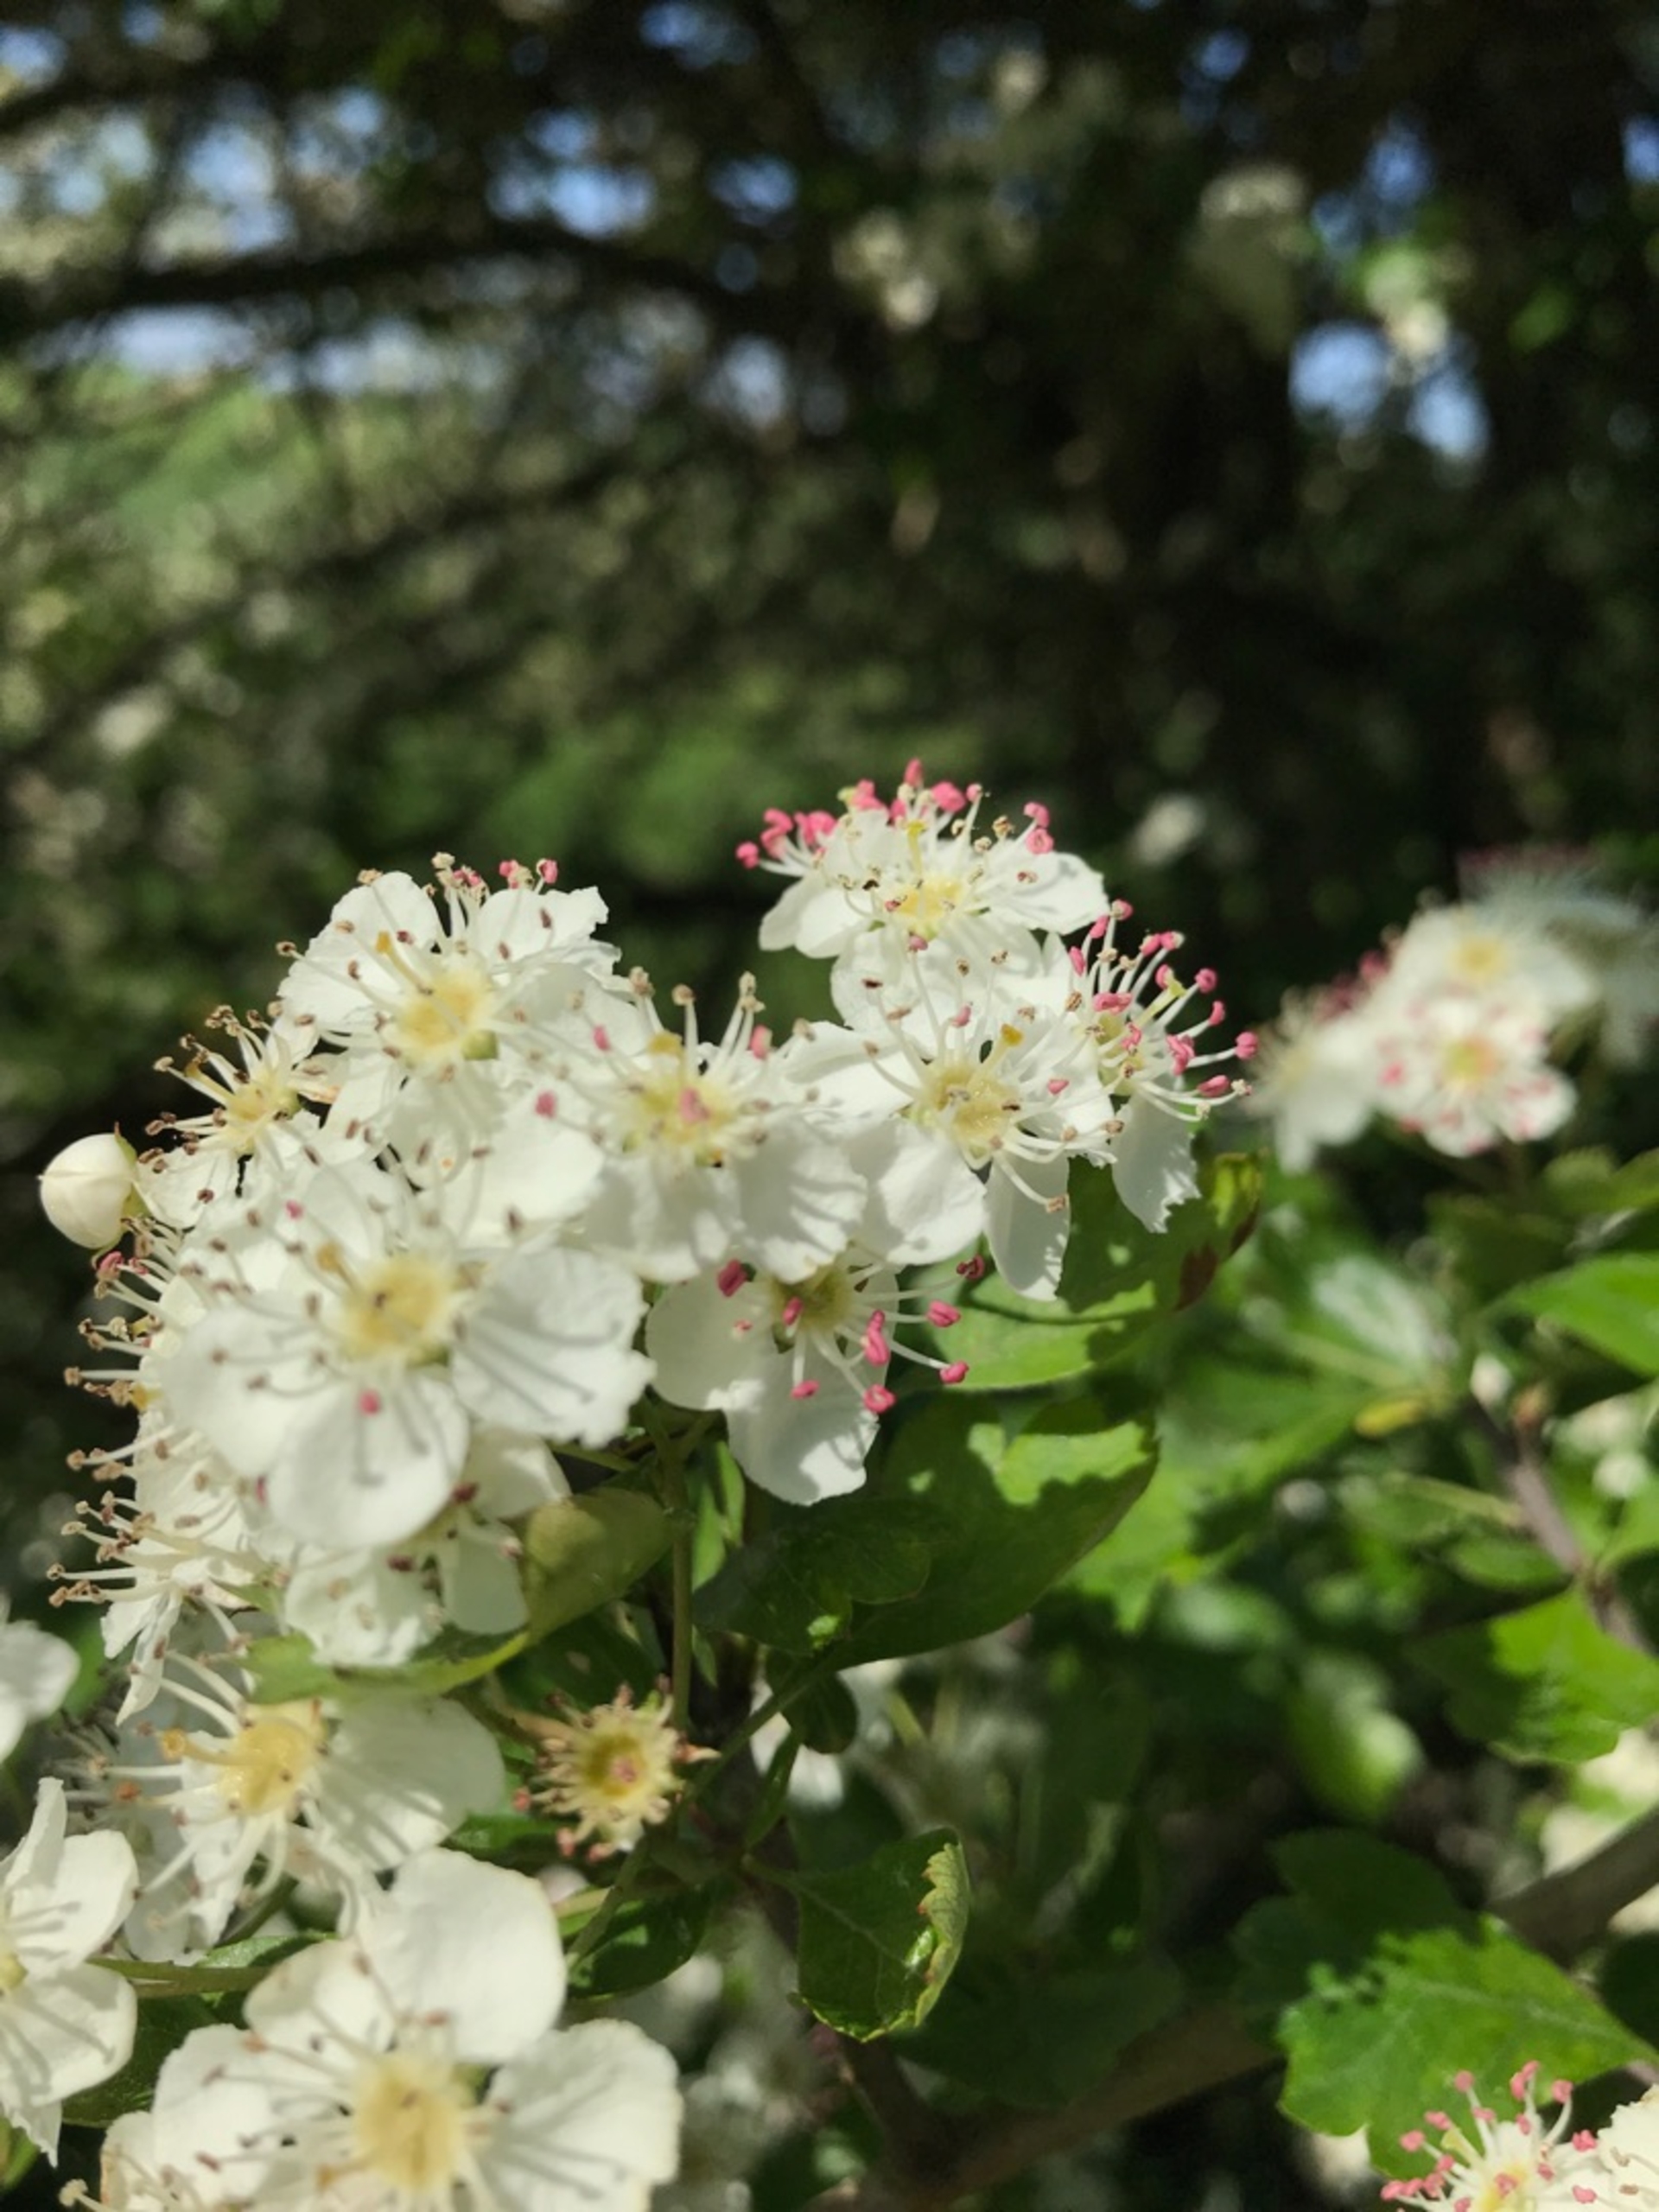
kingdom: Plantae
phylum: Tracheophyta
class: Magnoliopsida
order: Rosales
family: Rosaceae
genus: Crataegus
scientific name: Crataegus monogyna
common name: Engriflet hvidtjørn
